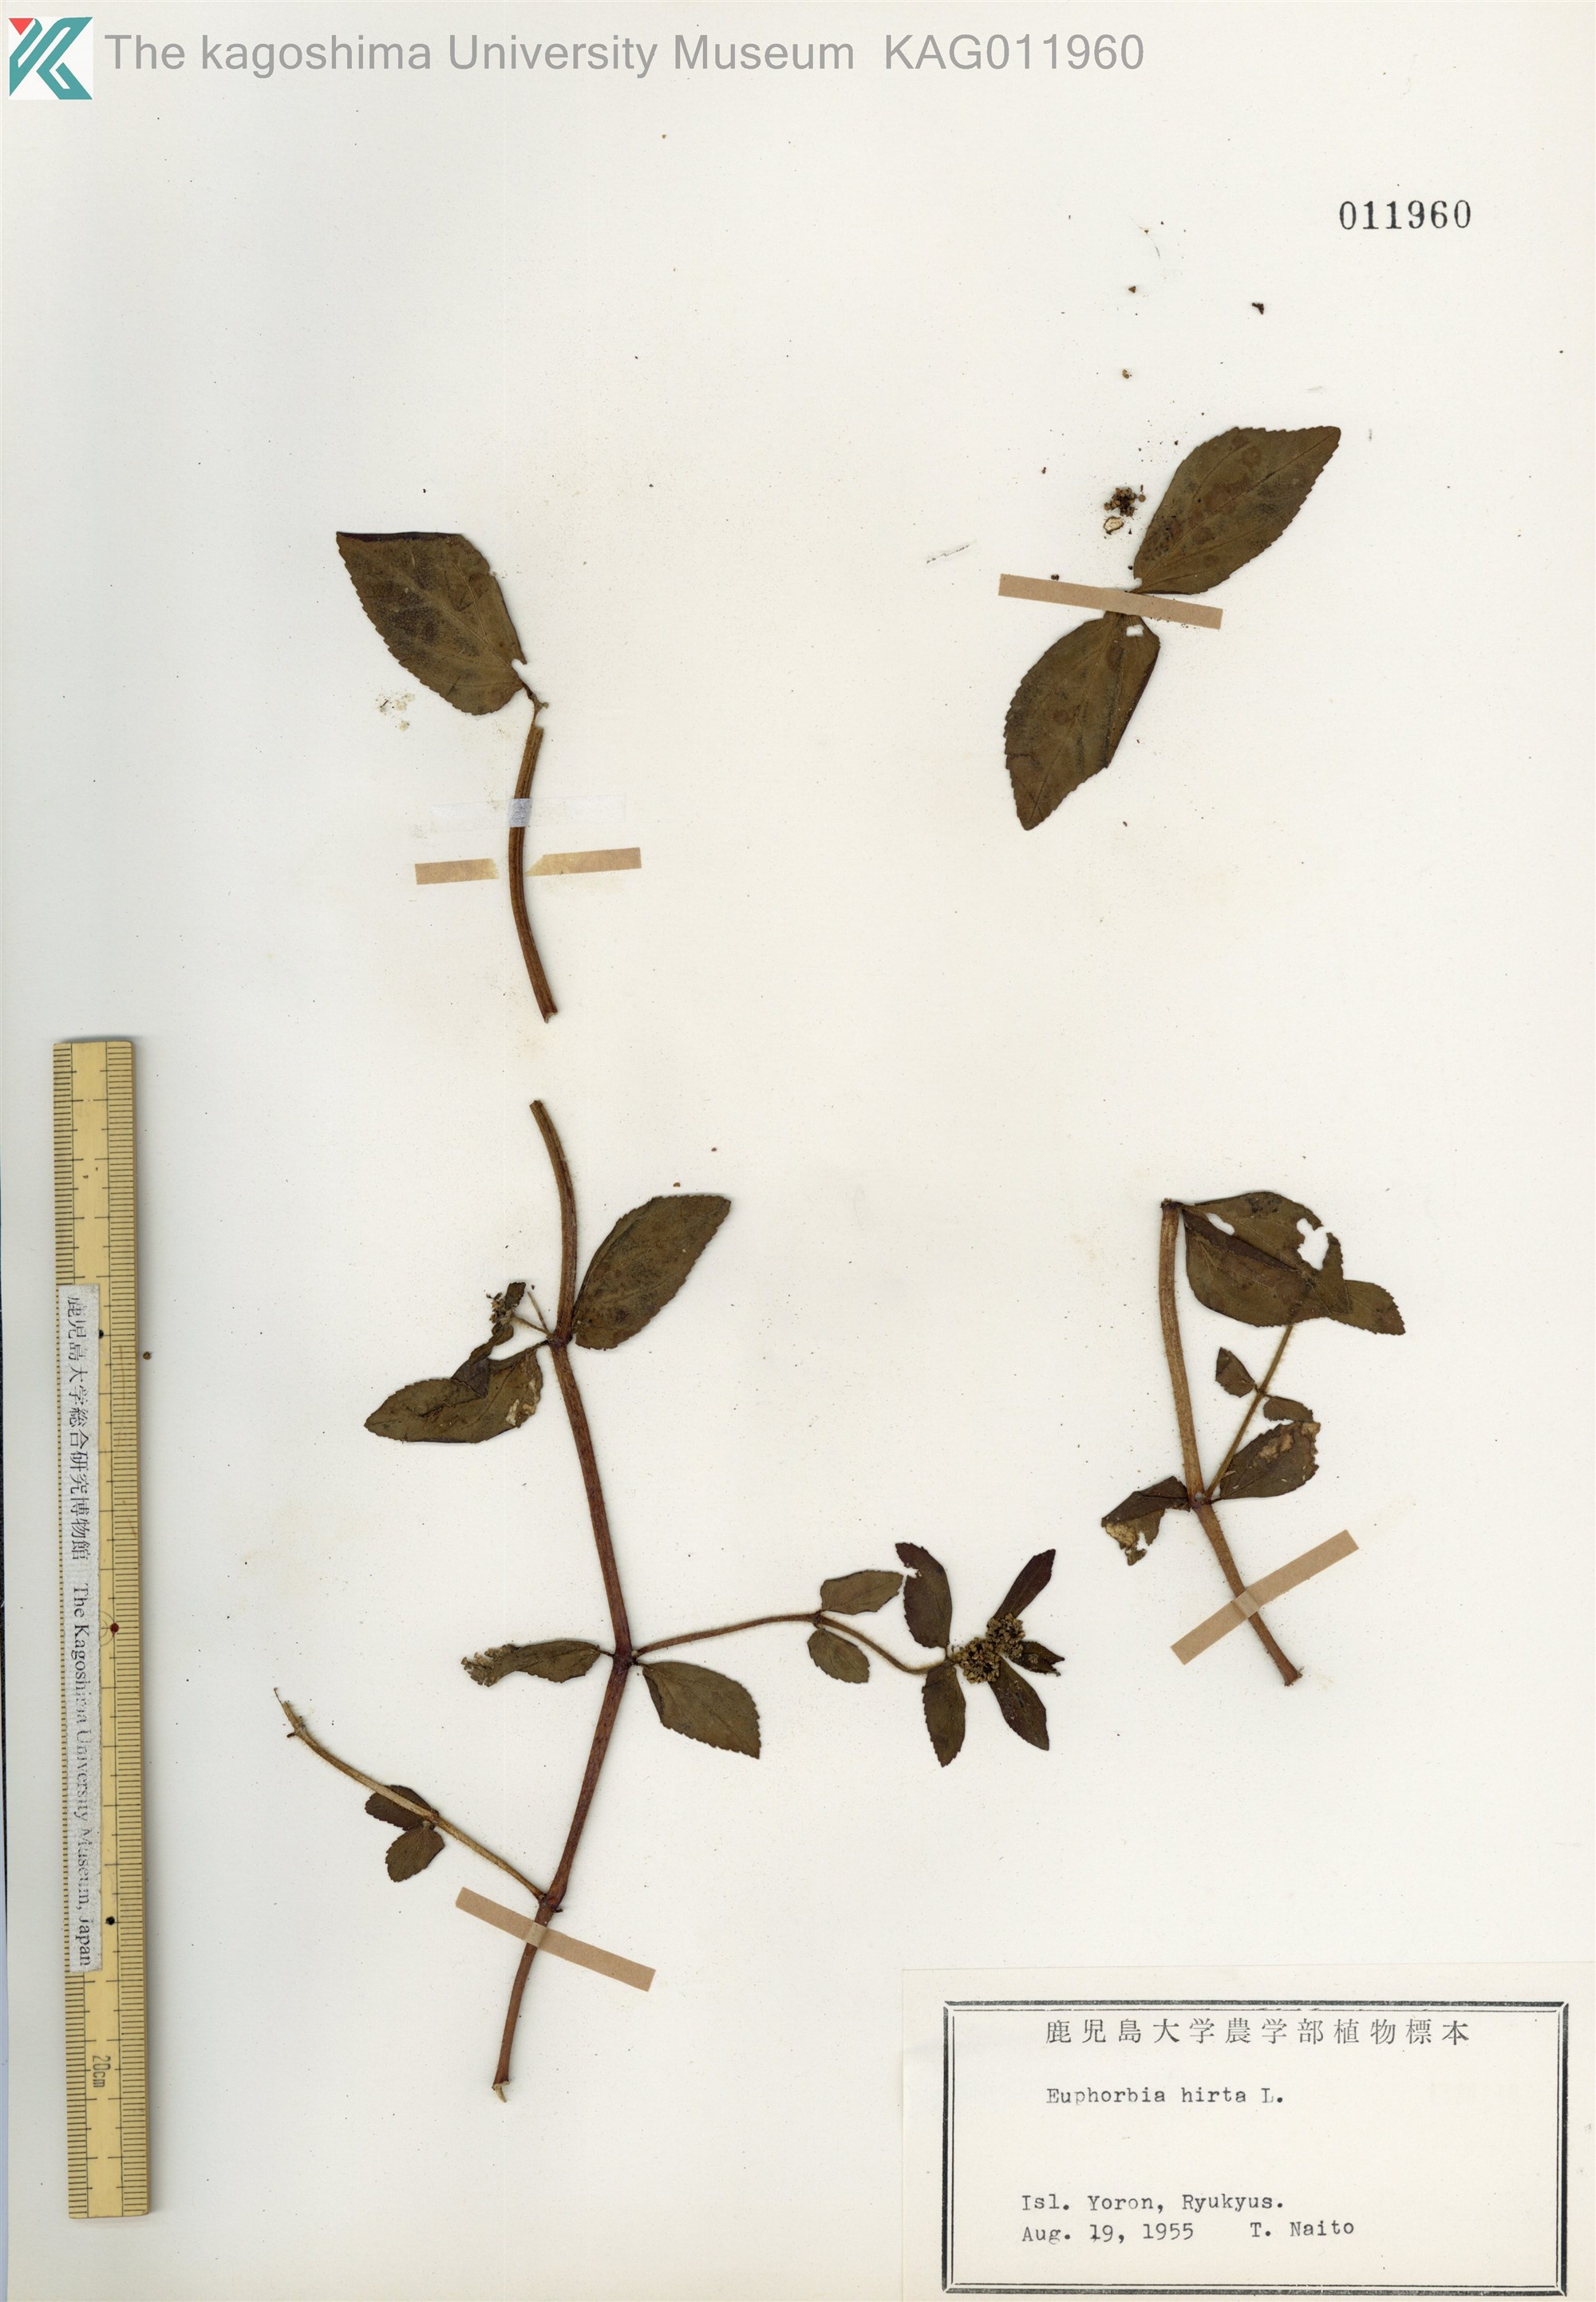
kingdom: Plantae
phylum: Tracheophyta
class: Magnoliopsida
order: Malpighiales
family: Euphorbiaceae
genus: Euphorbia
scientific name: Euphorbia hirta
